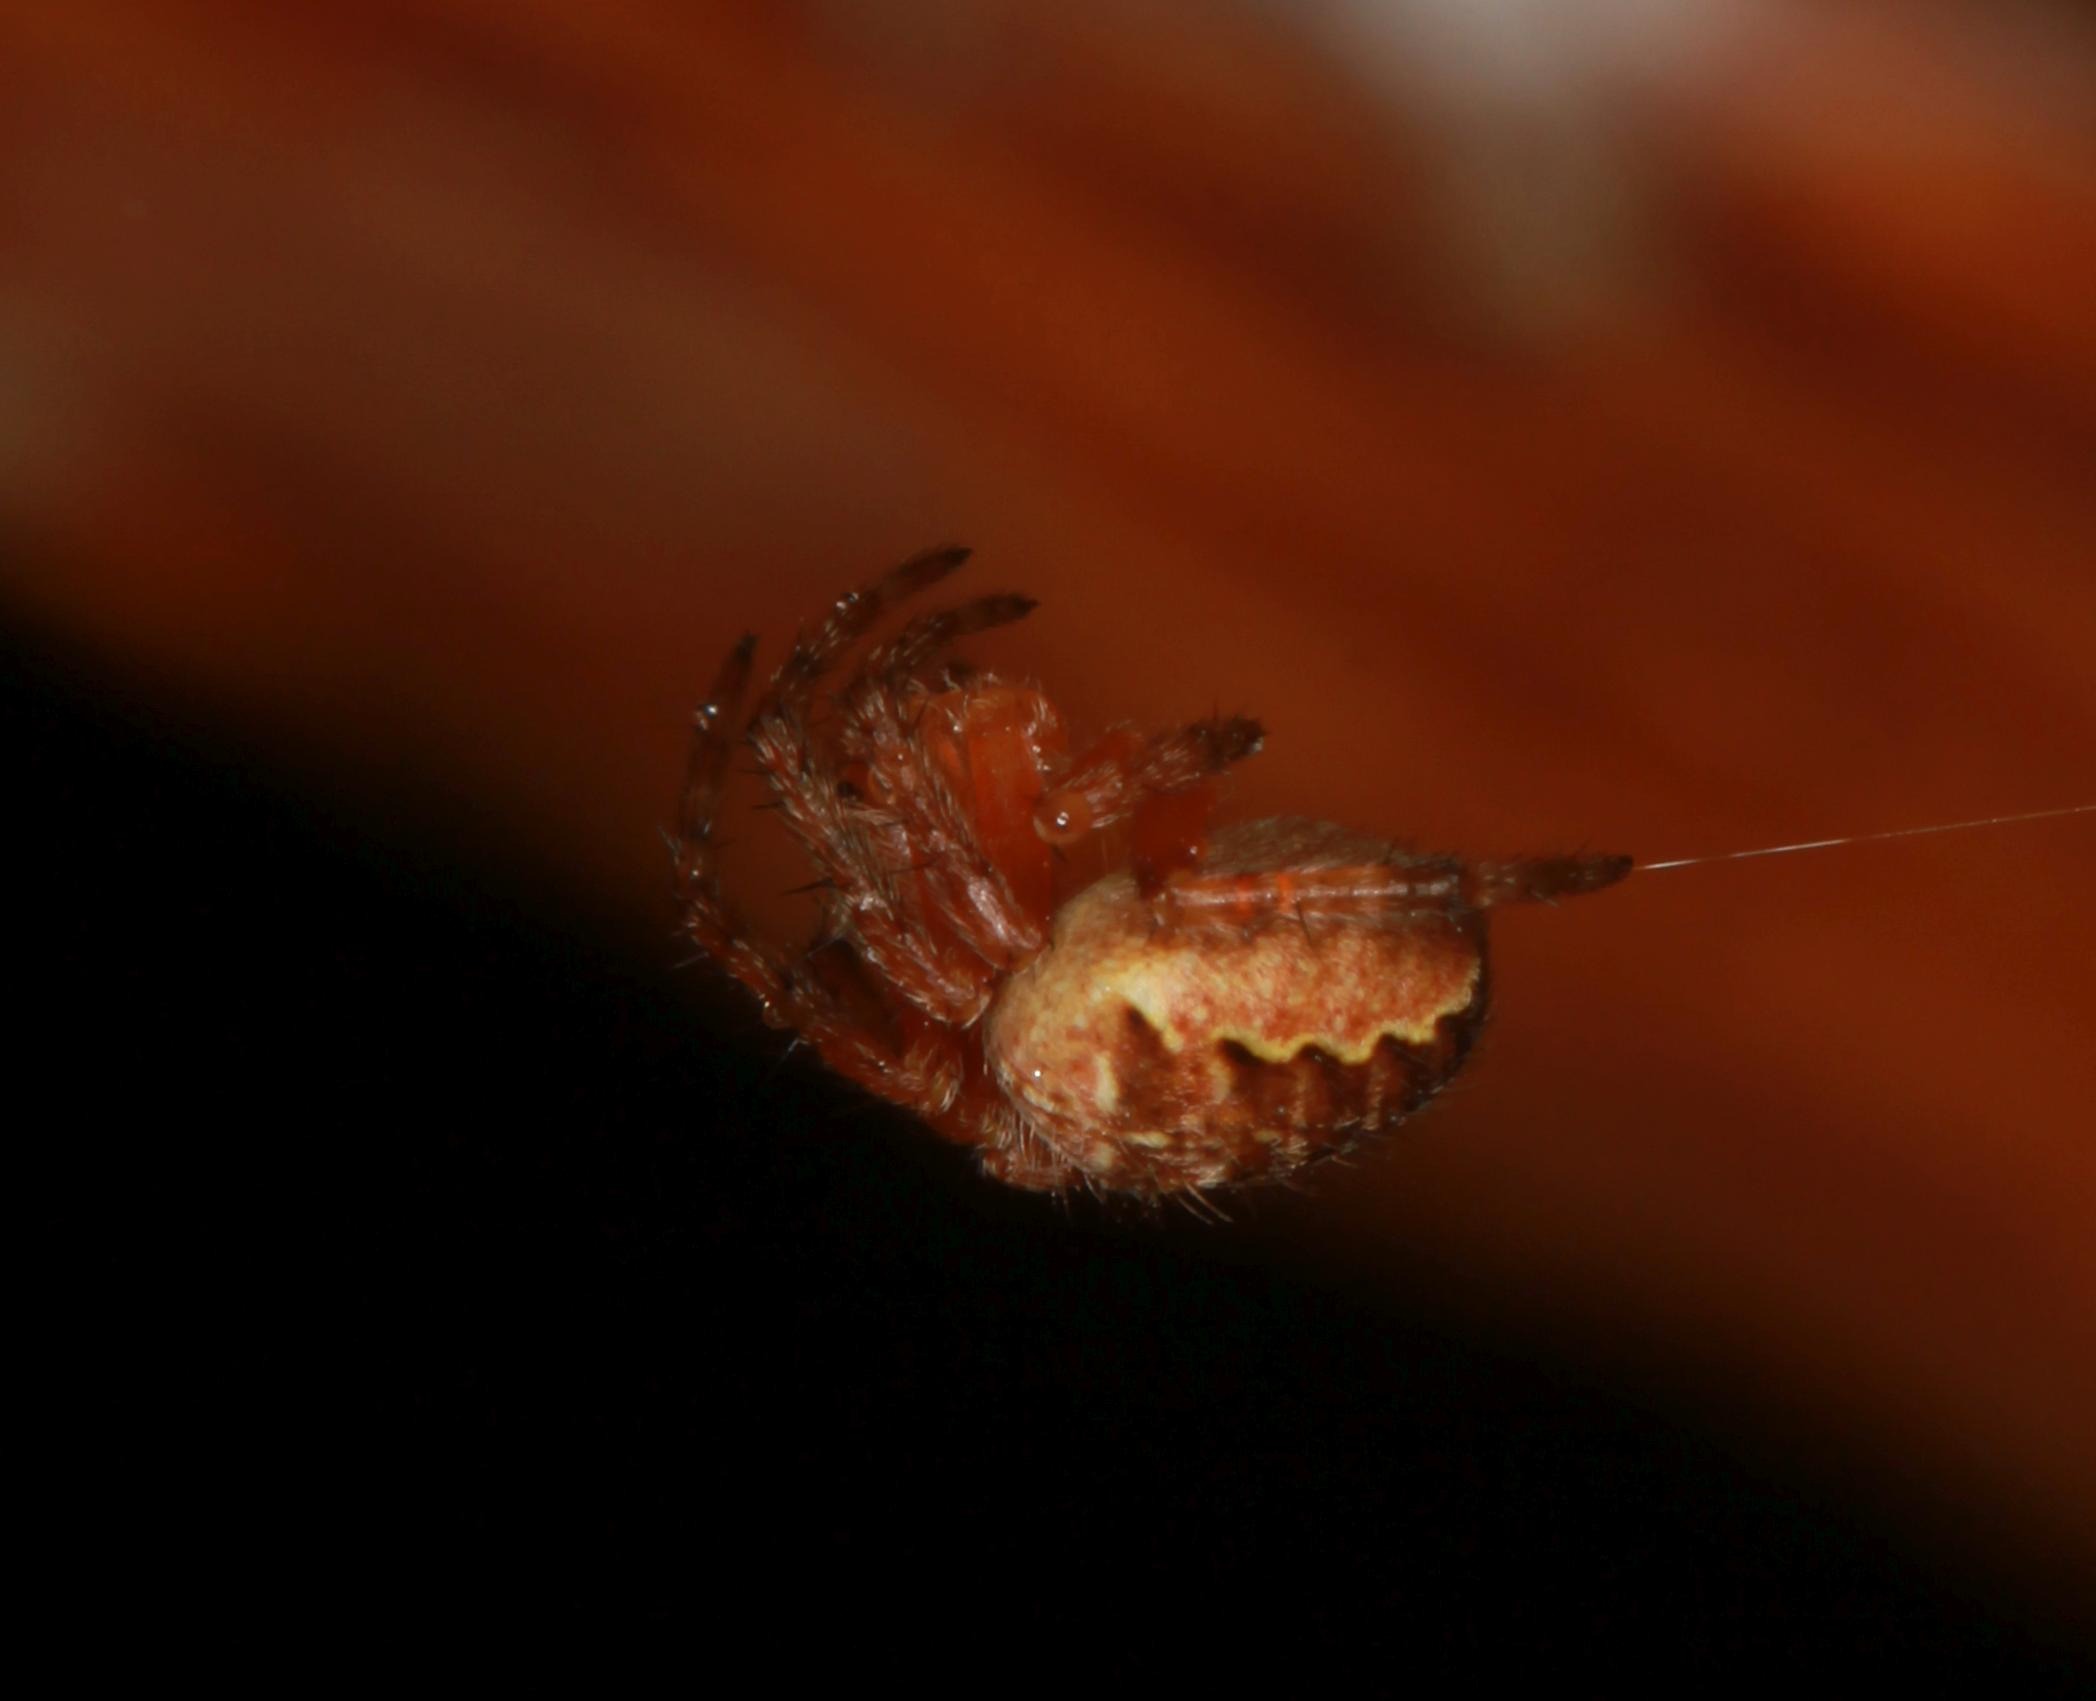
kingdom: Animalia
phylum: Arthropoda
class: Arachnida
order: Araneae
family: Araneidae
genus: Araneus
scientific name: Araneus diadematus
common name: Korsedderkop
